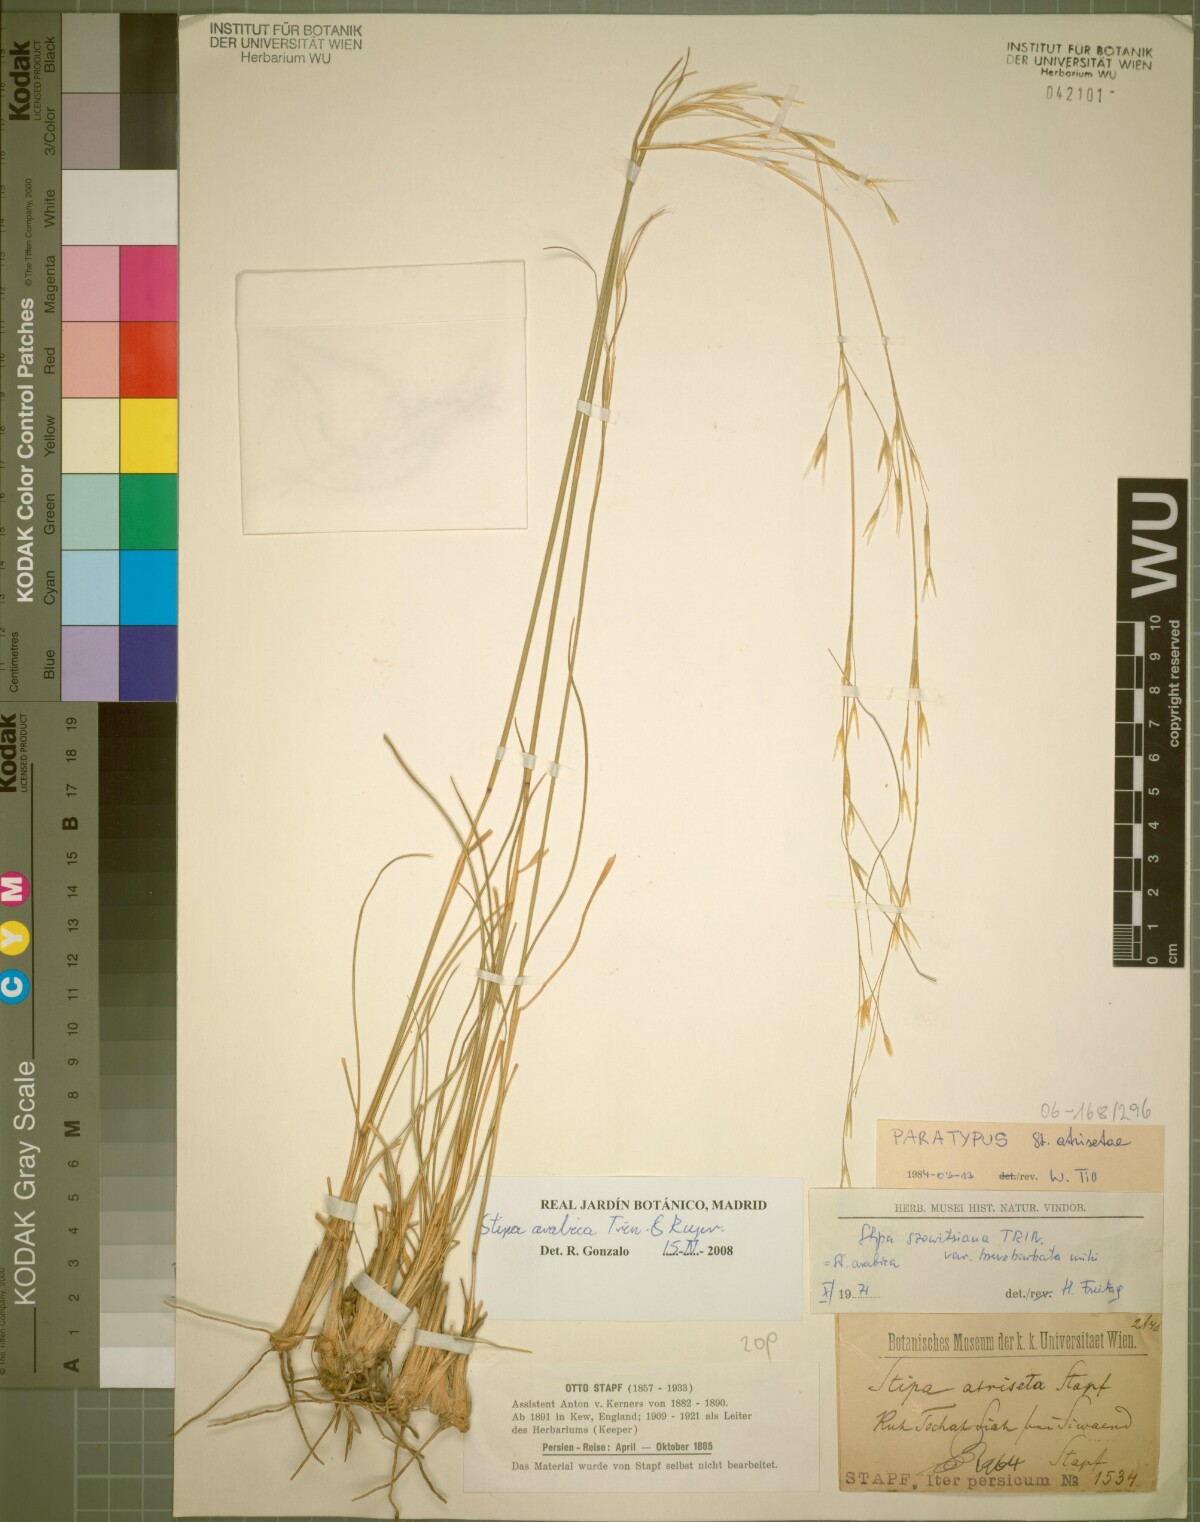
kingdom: Plantae
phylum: Tracheophyta
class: Liliopsida
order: Poales
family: Poaceae
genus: Stipa
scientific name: Stipa hohenackeriana
